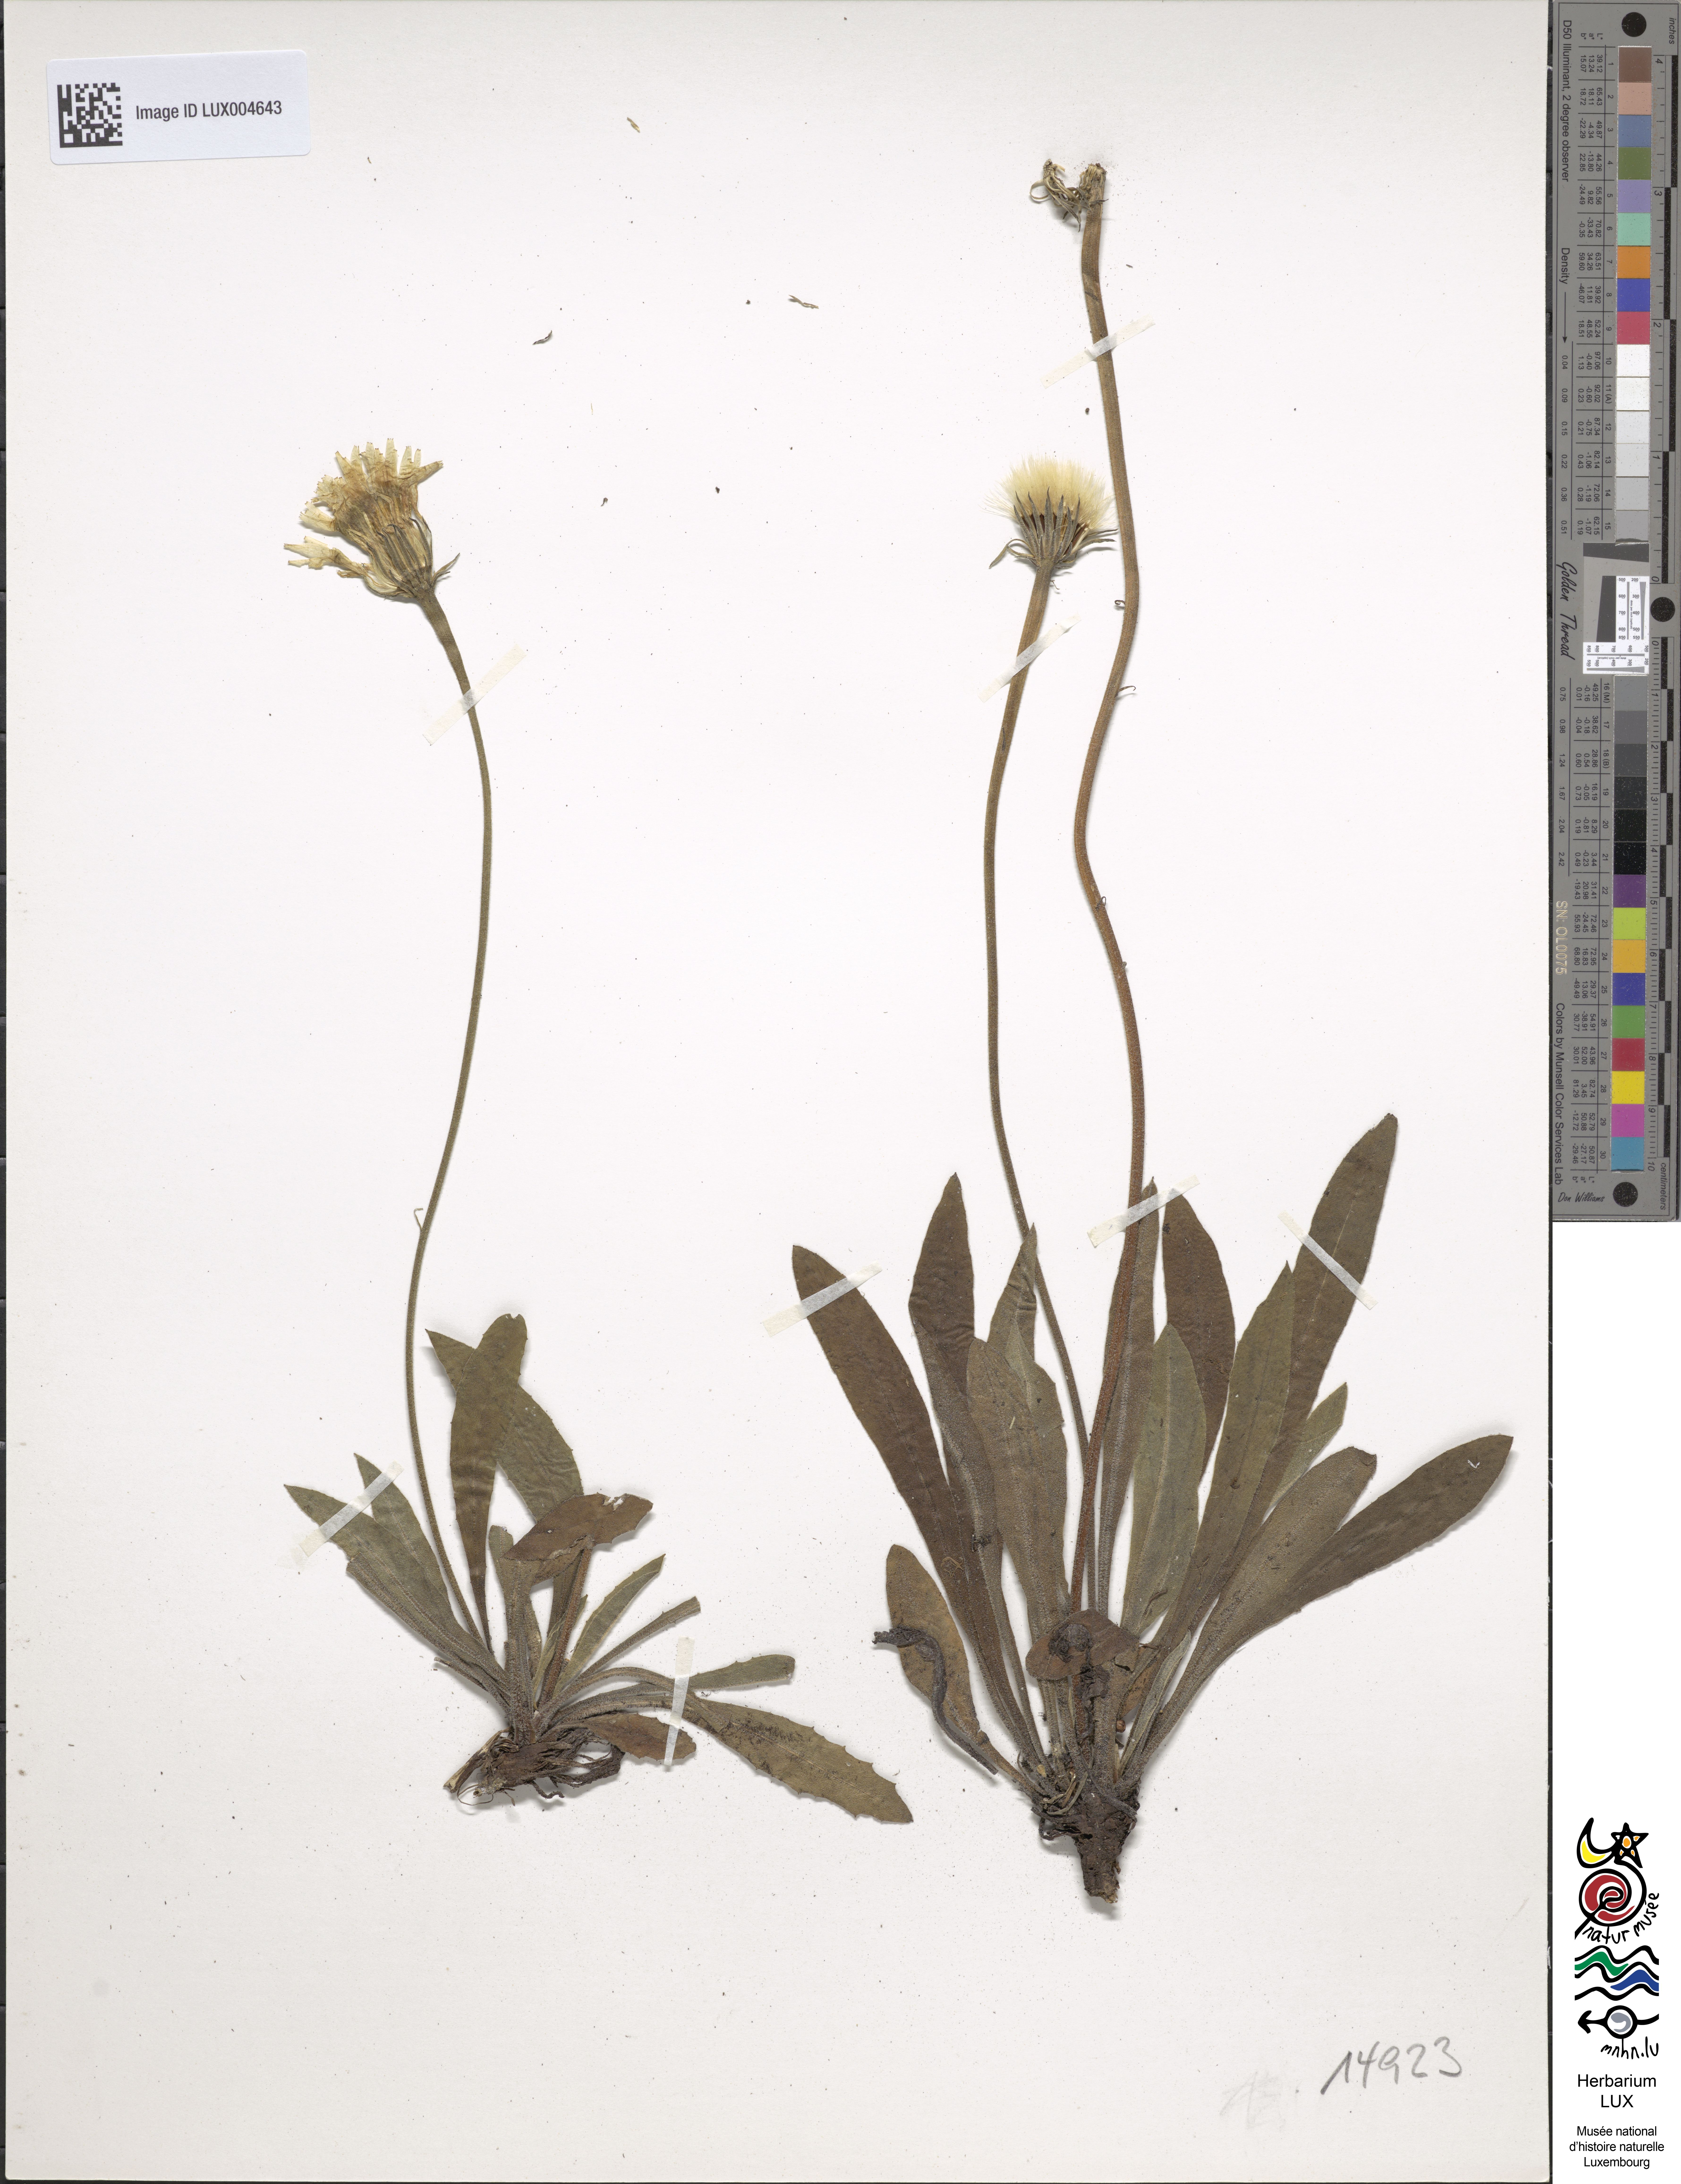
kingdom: Plantae
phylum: Tracheophyta
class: Magnoliopsida
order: Asterales
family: Asteraceae
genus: Leontodon
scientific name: Leontodon incanus
